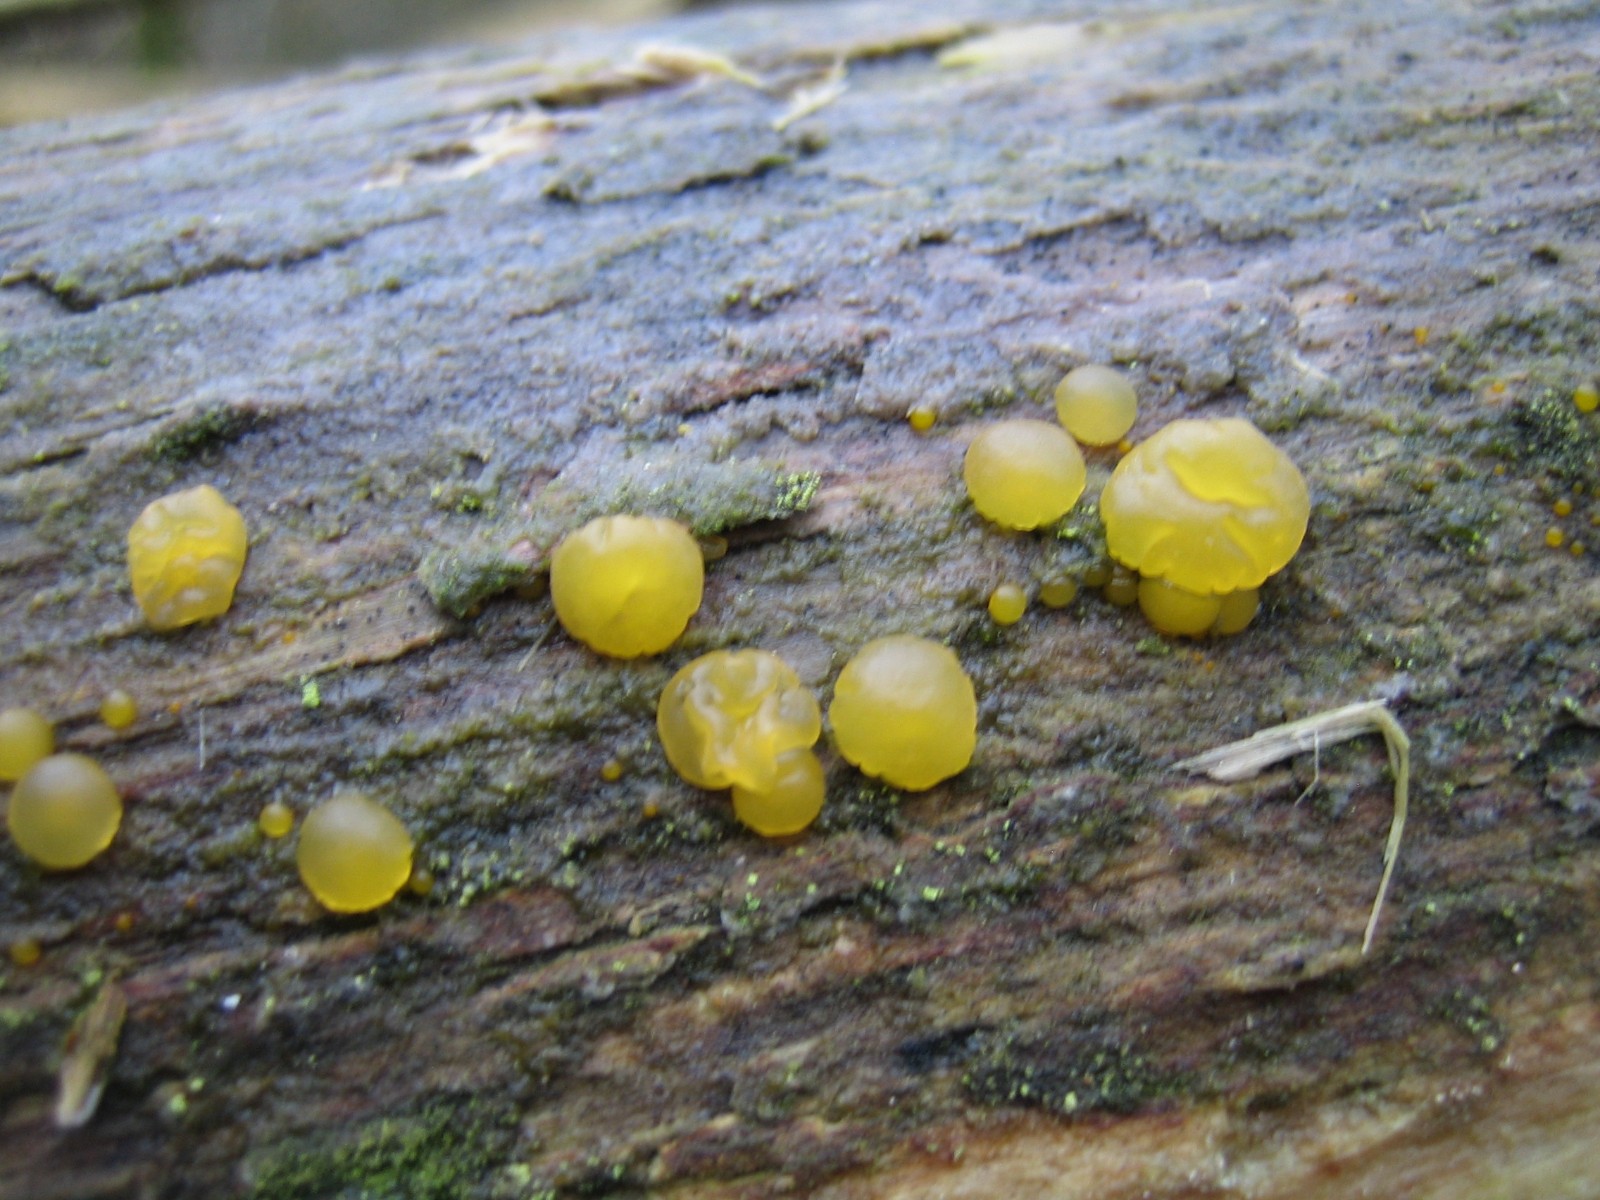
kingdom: Fungi
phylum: Basidiomycota
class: Dacrymycetes
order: Dacrymycetales
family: Dacrymycetaceae
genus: Dacrymyces
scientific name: Dacrymyces lacrymalis
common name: rynket tåresvamp
